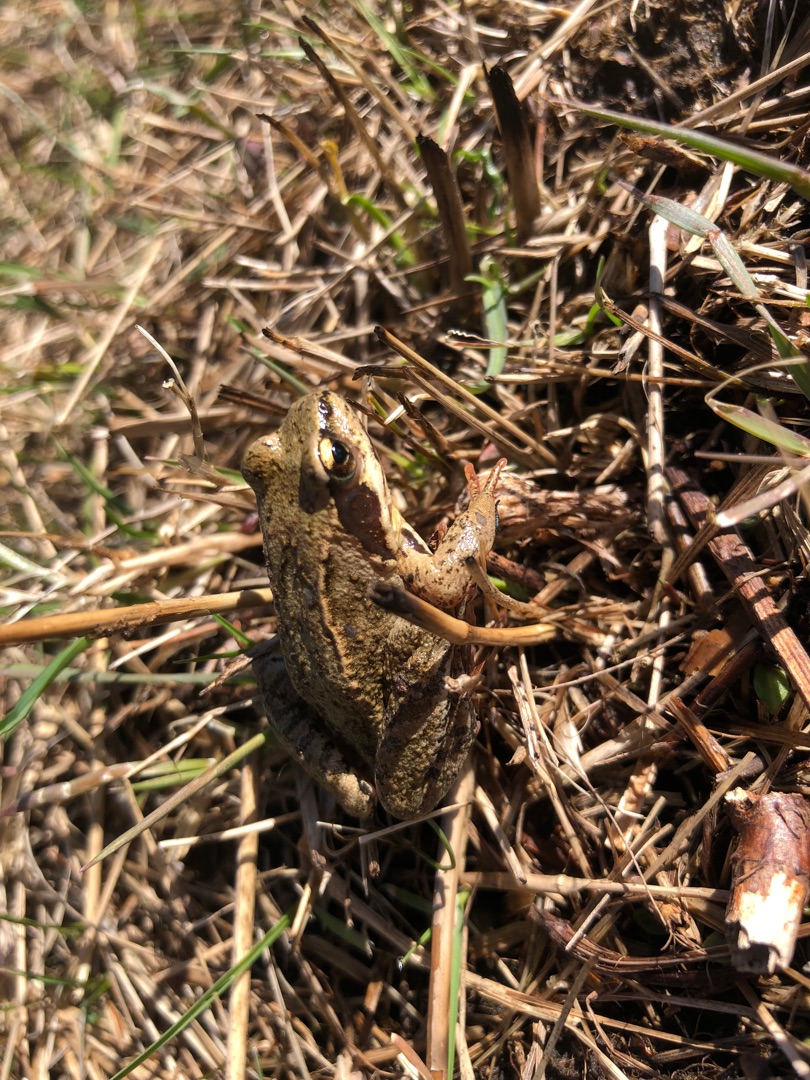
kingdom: Animalia
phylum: Chordata
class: Amphibia
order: Anura
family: Ranidae
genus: Rana
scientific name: Rana temporaria
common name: Butsnudet frø
